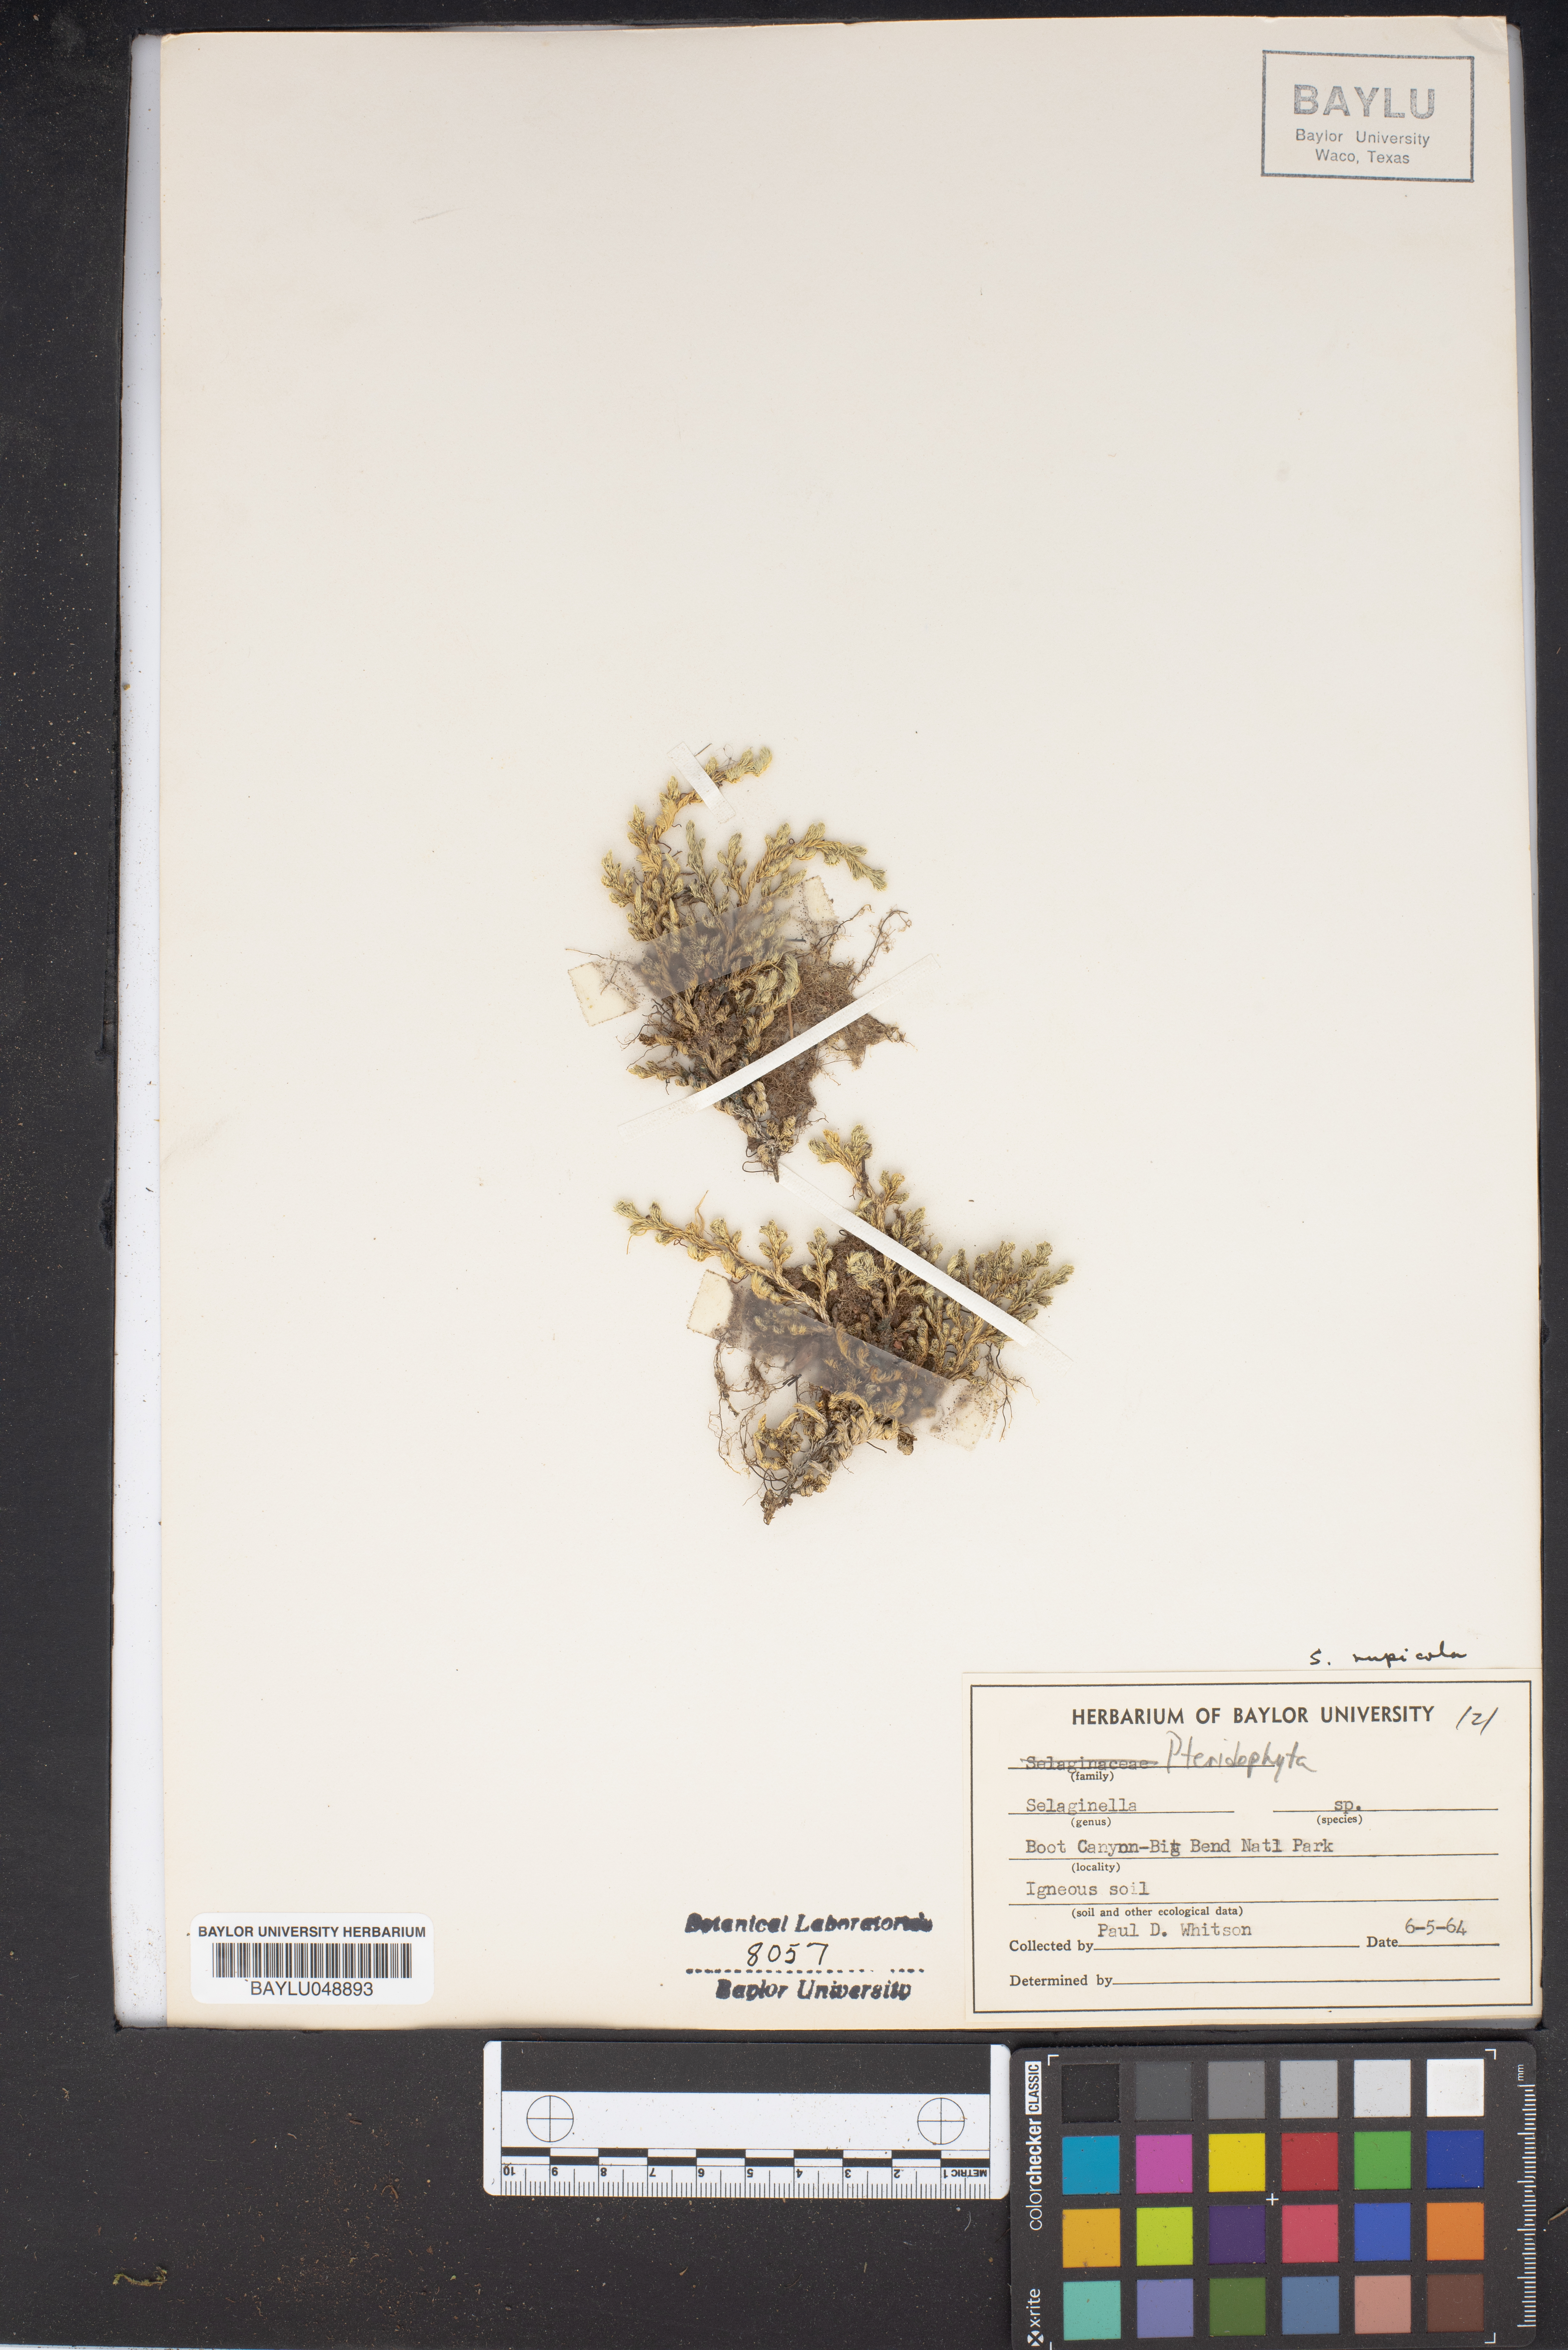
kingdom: Plantae
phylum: Tracheophyta
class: Lycopodiopsida
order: Selaginellales
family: Selaginellaceae
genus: Selaginella
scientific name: Selaginella
